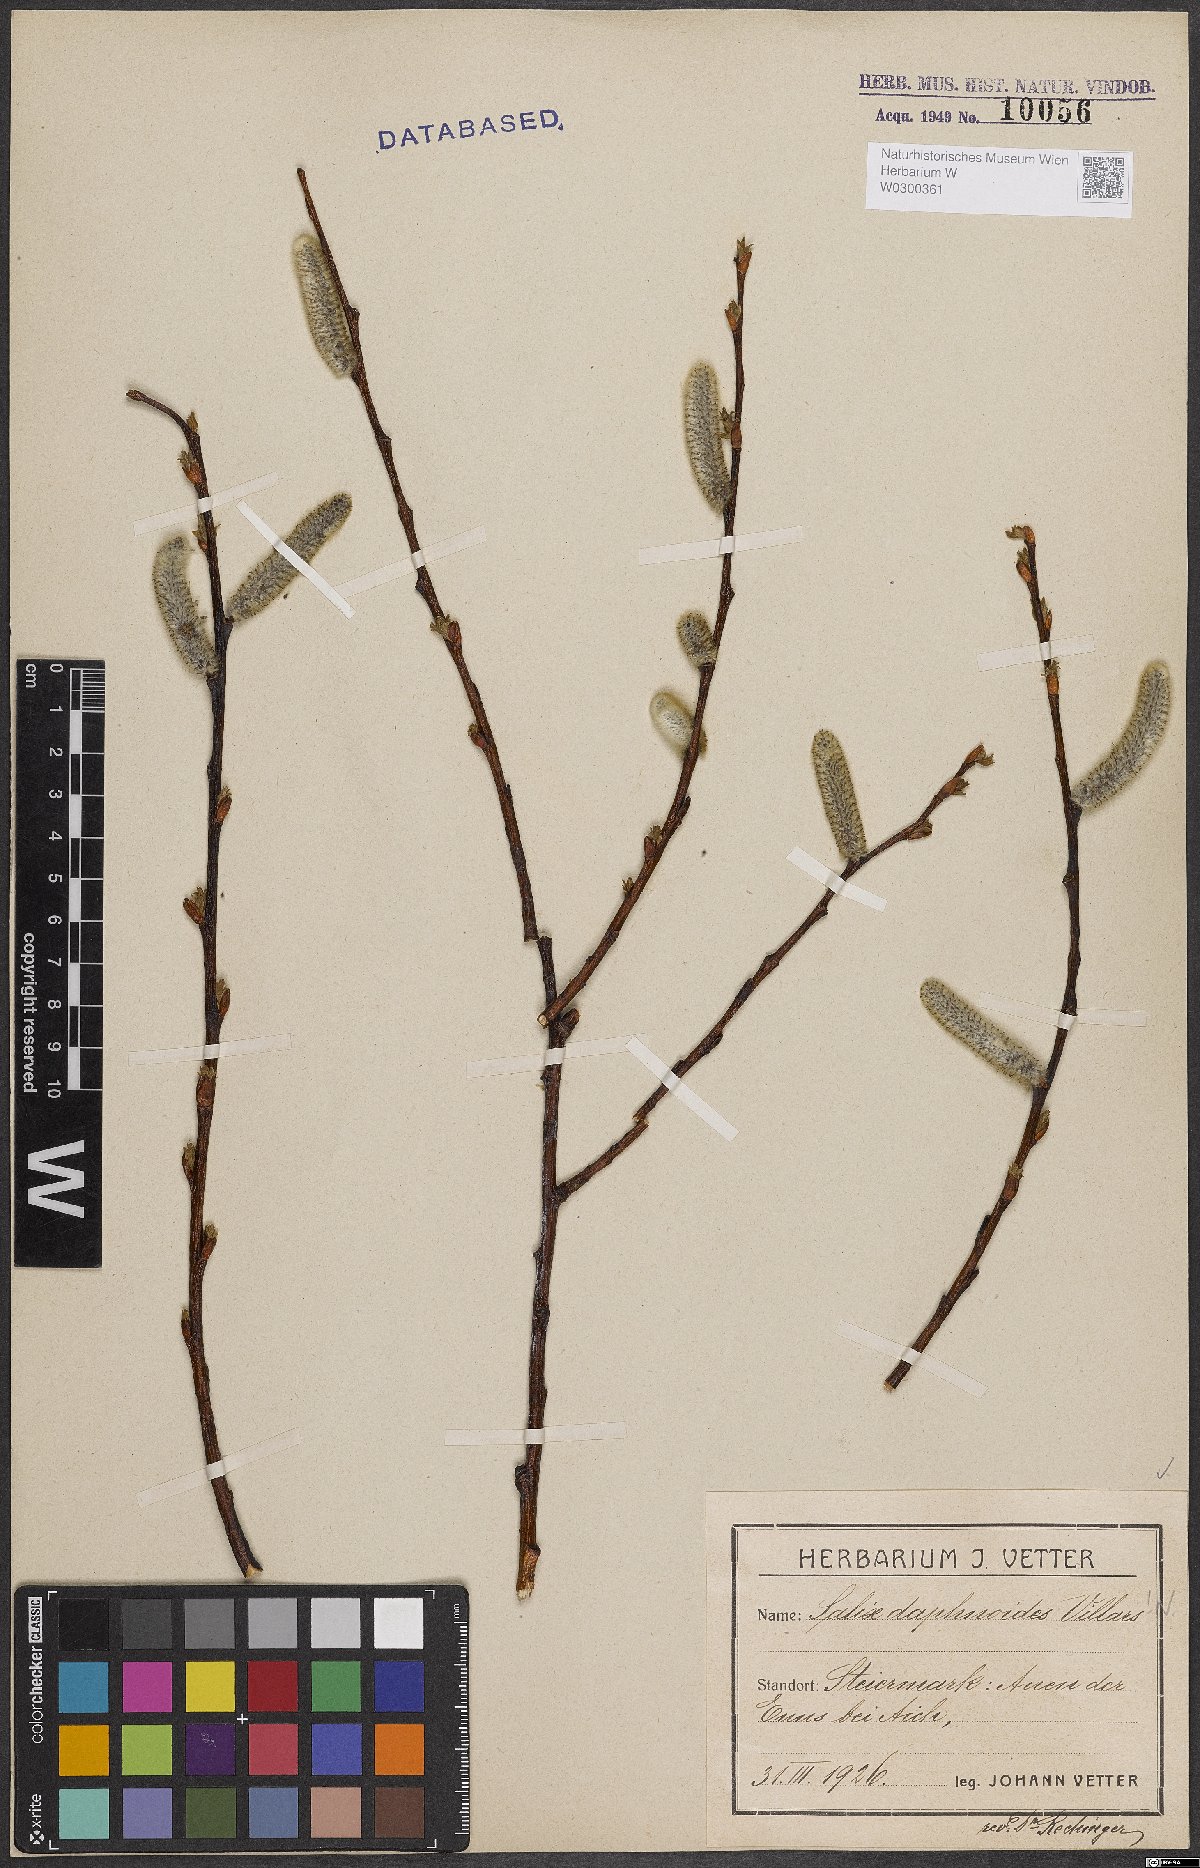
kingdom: Plantae
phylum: Tracheophyta
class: Magnoliopsida
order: Malpighiales
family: Salicaceae
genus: Salix
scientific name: Salix daphnoides
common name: European violet-willow
